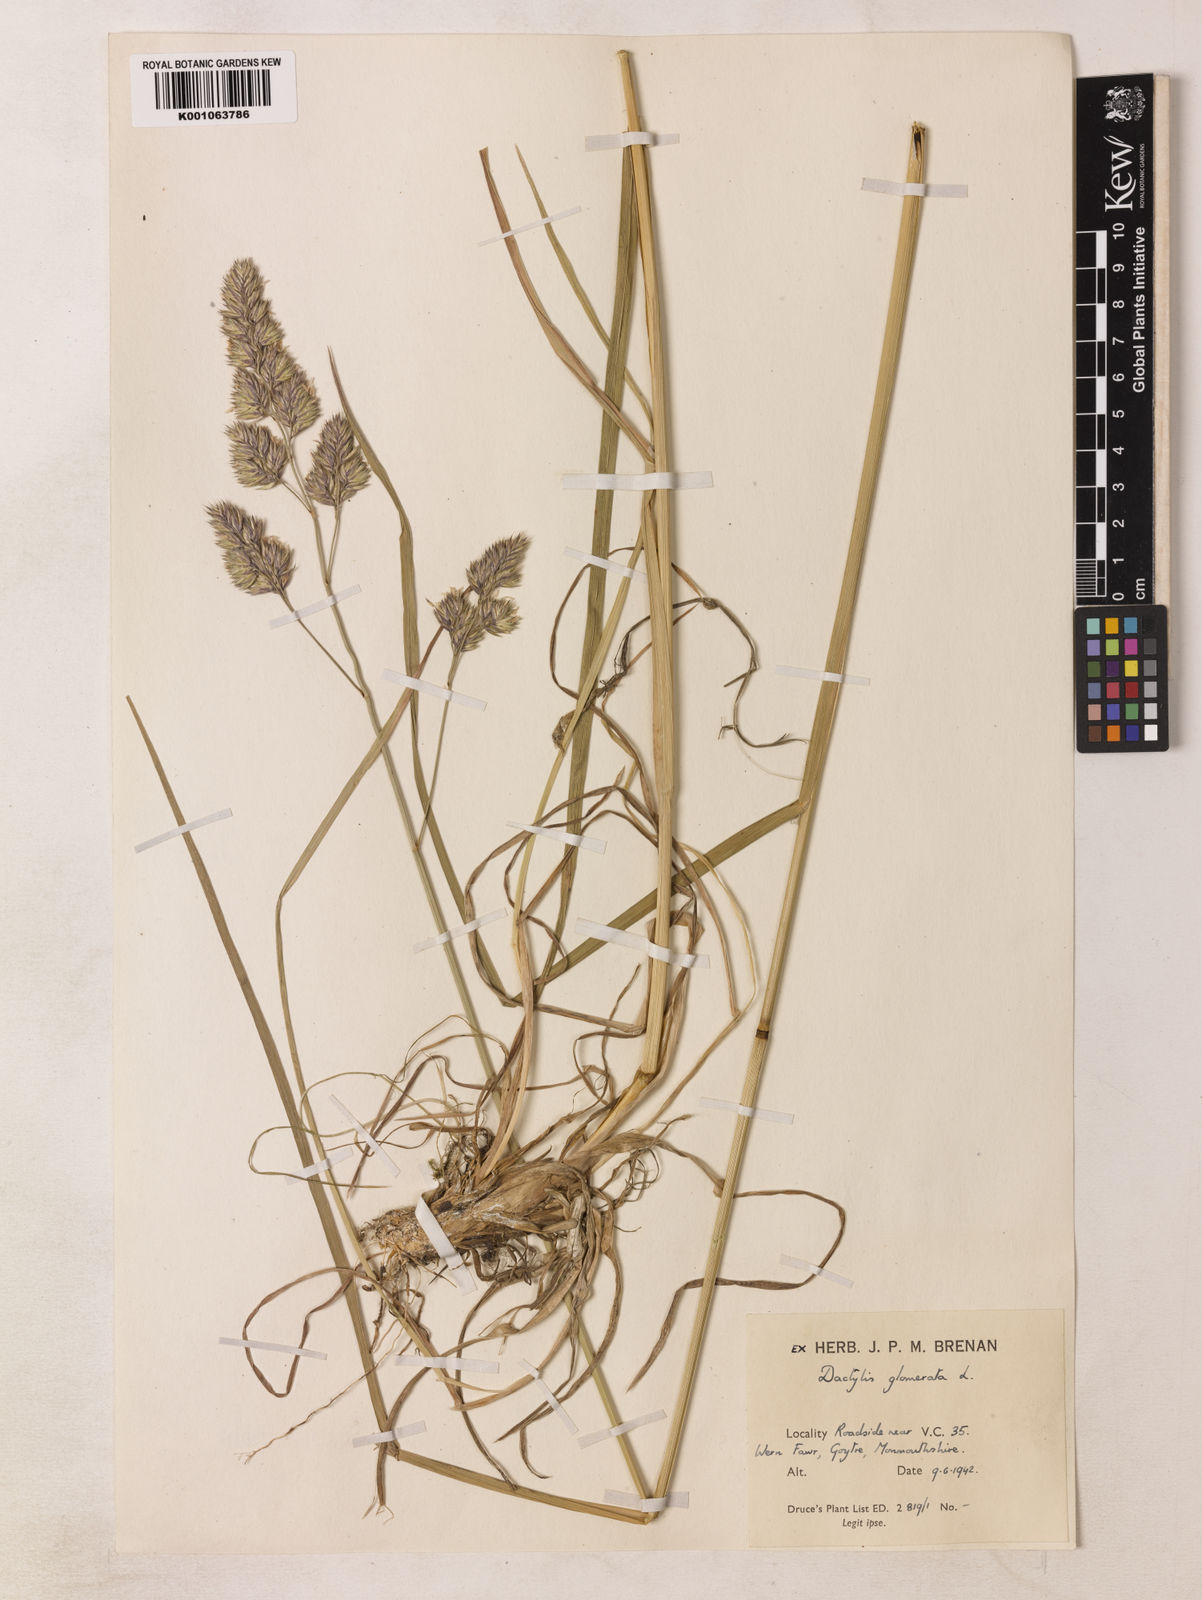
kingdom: Plantae
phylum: Tracheophyta
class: Liliopsida
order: Poales
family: Poaceae
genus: Dactylis
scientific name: Dactylis glomerata
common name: Orchardgrass
